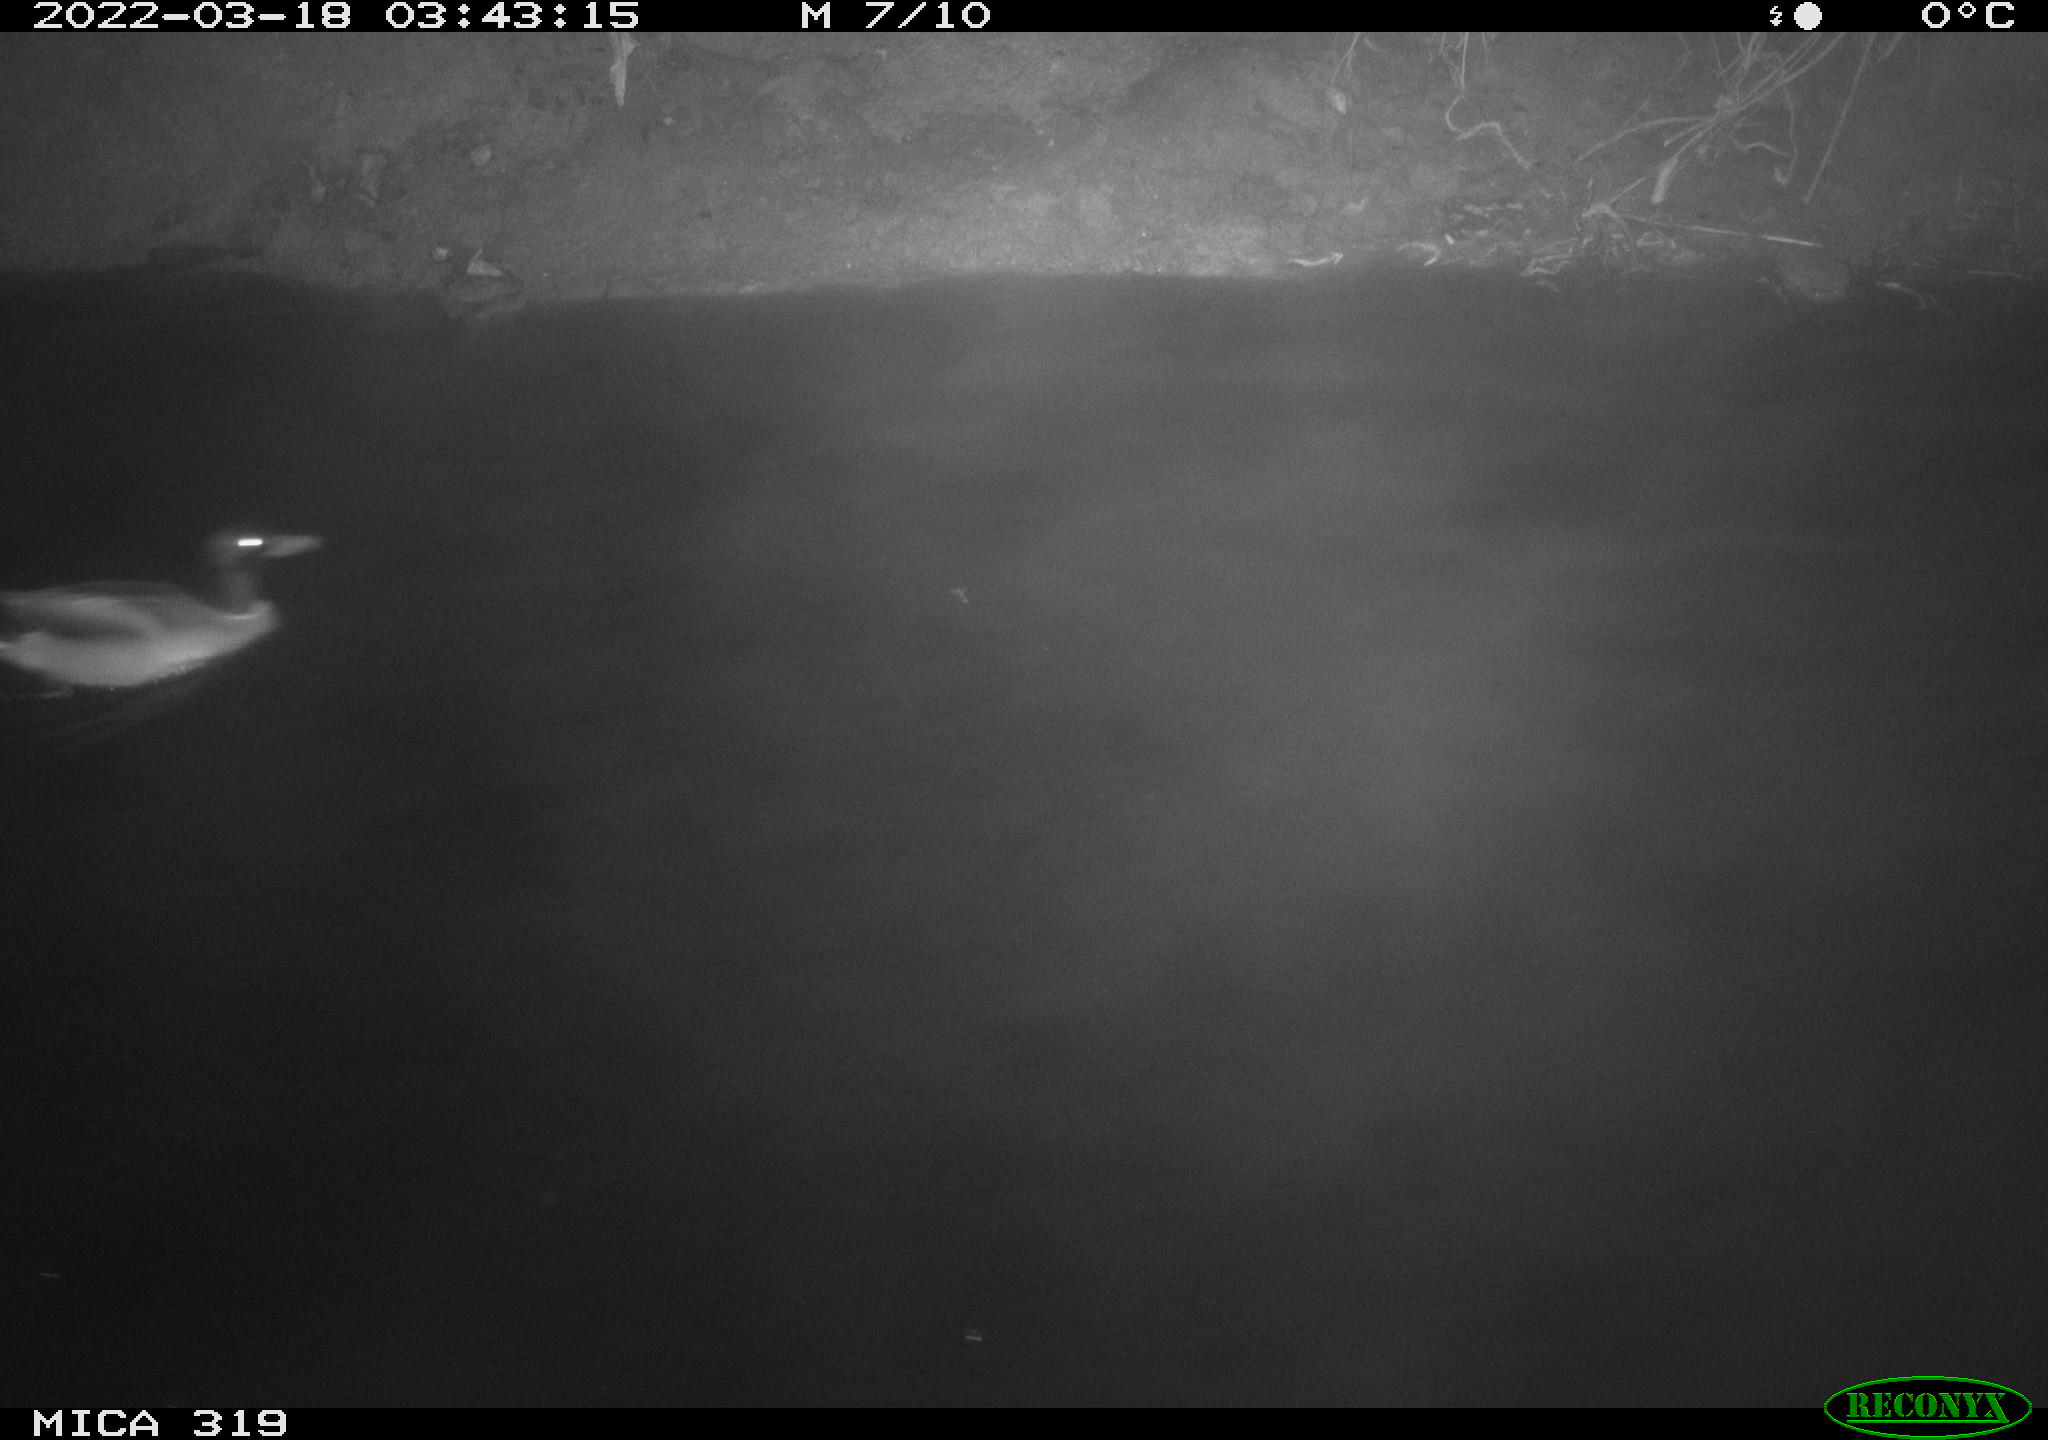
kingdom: Animalia
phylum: Chordata
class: Aves
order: Anseriformes
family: Anatidae
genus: Anas
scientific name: Anas platyrhynchos
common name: Mallard
